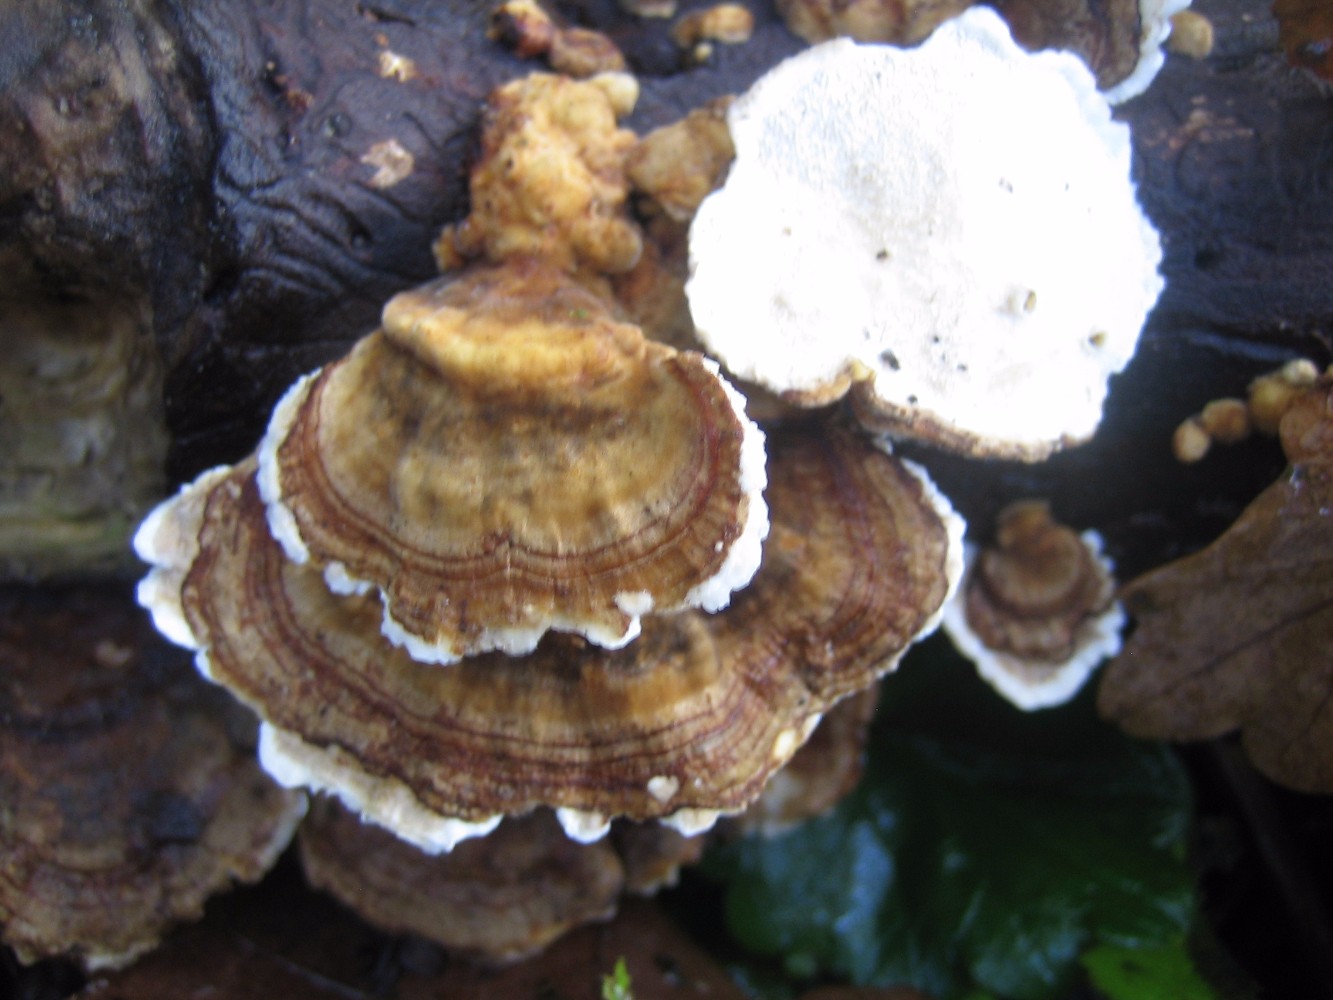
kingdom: Fungi
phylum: Basidiomycota
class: Agaricomycetes
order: Polyporales
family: Polyporaceae
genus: Trametes
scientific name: Trametes versicolor
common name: broget læderporesvamp
